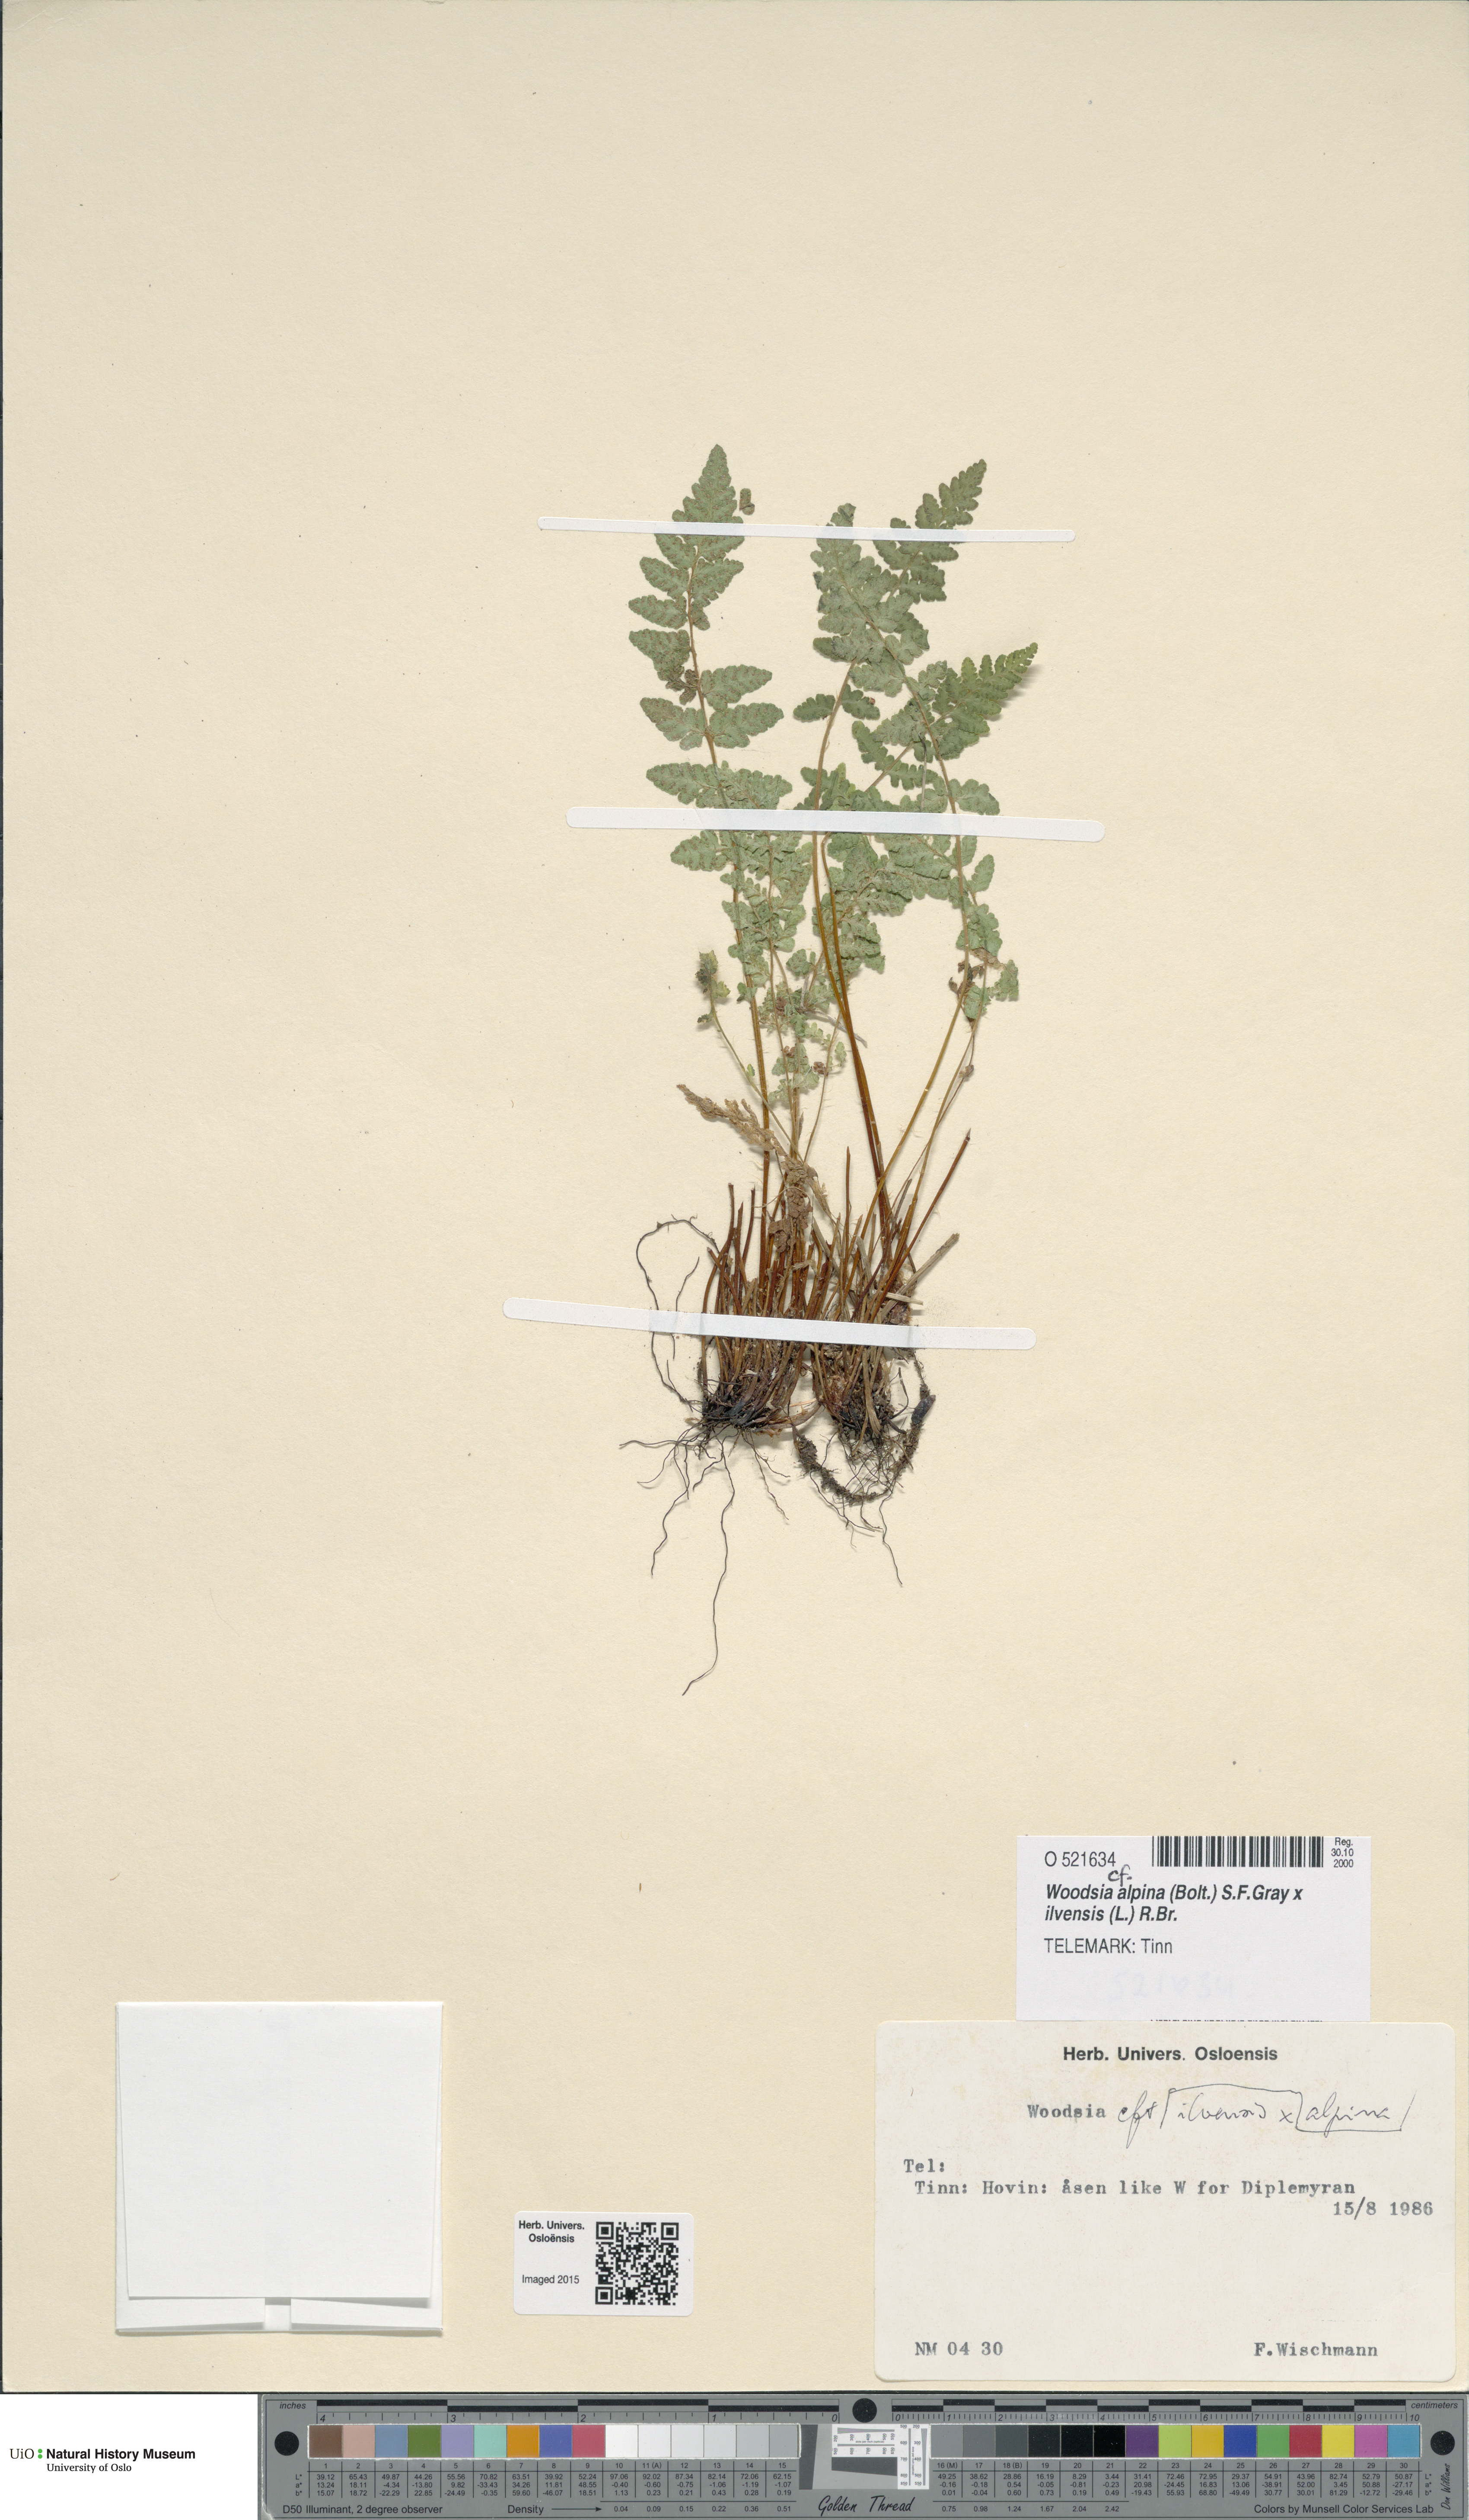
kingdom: Plantae
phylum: Tracheophyta
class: Polypodiopsida
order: Polypodiales
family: Woodsiaceae
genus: Woodsia
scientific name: Woodsia
